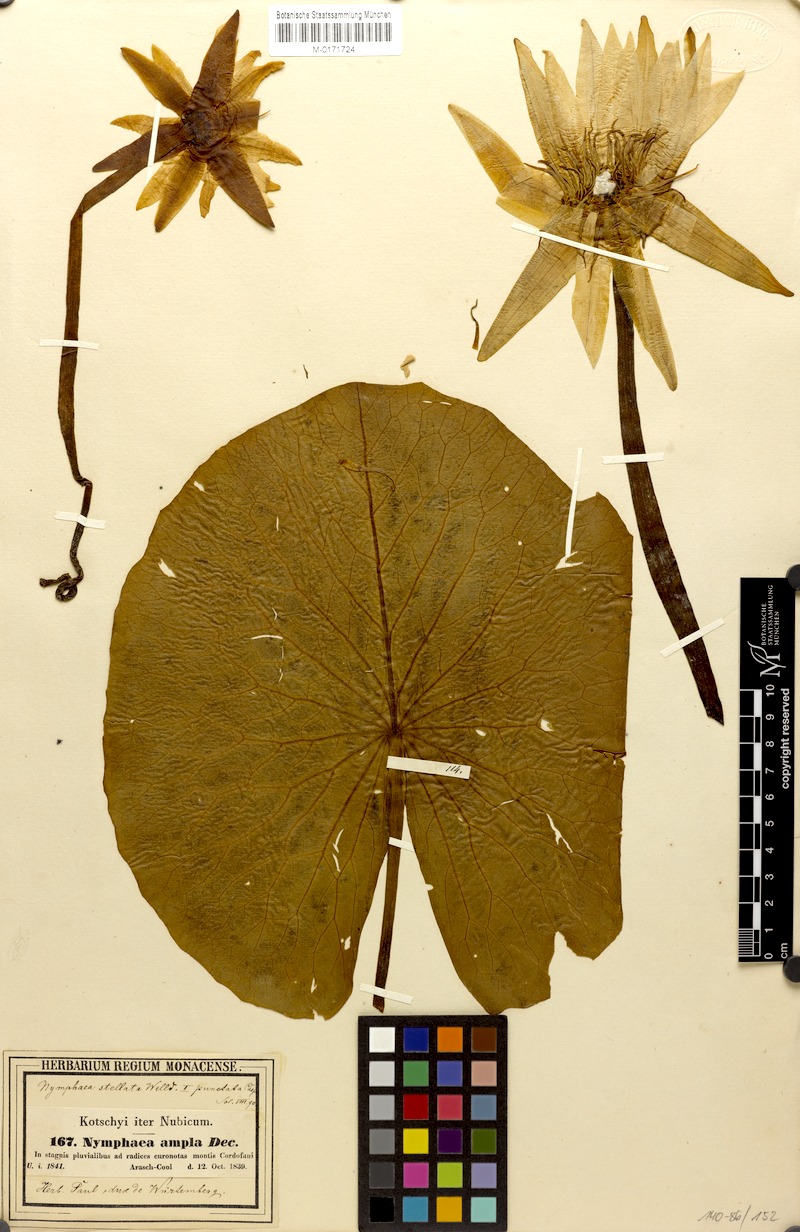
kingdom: Plantae
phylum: Tracheophyta
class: Magnoliopsida
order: Nymphaeales
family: Nymphaeaceae
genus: Nymphaea
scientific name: Nymphaea
